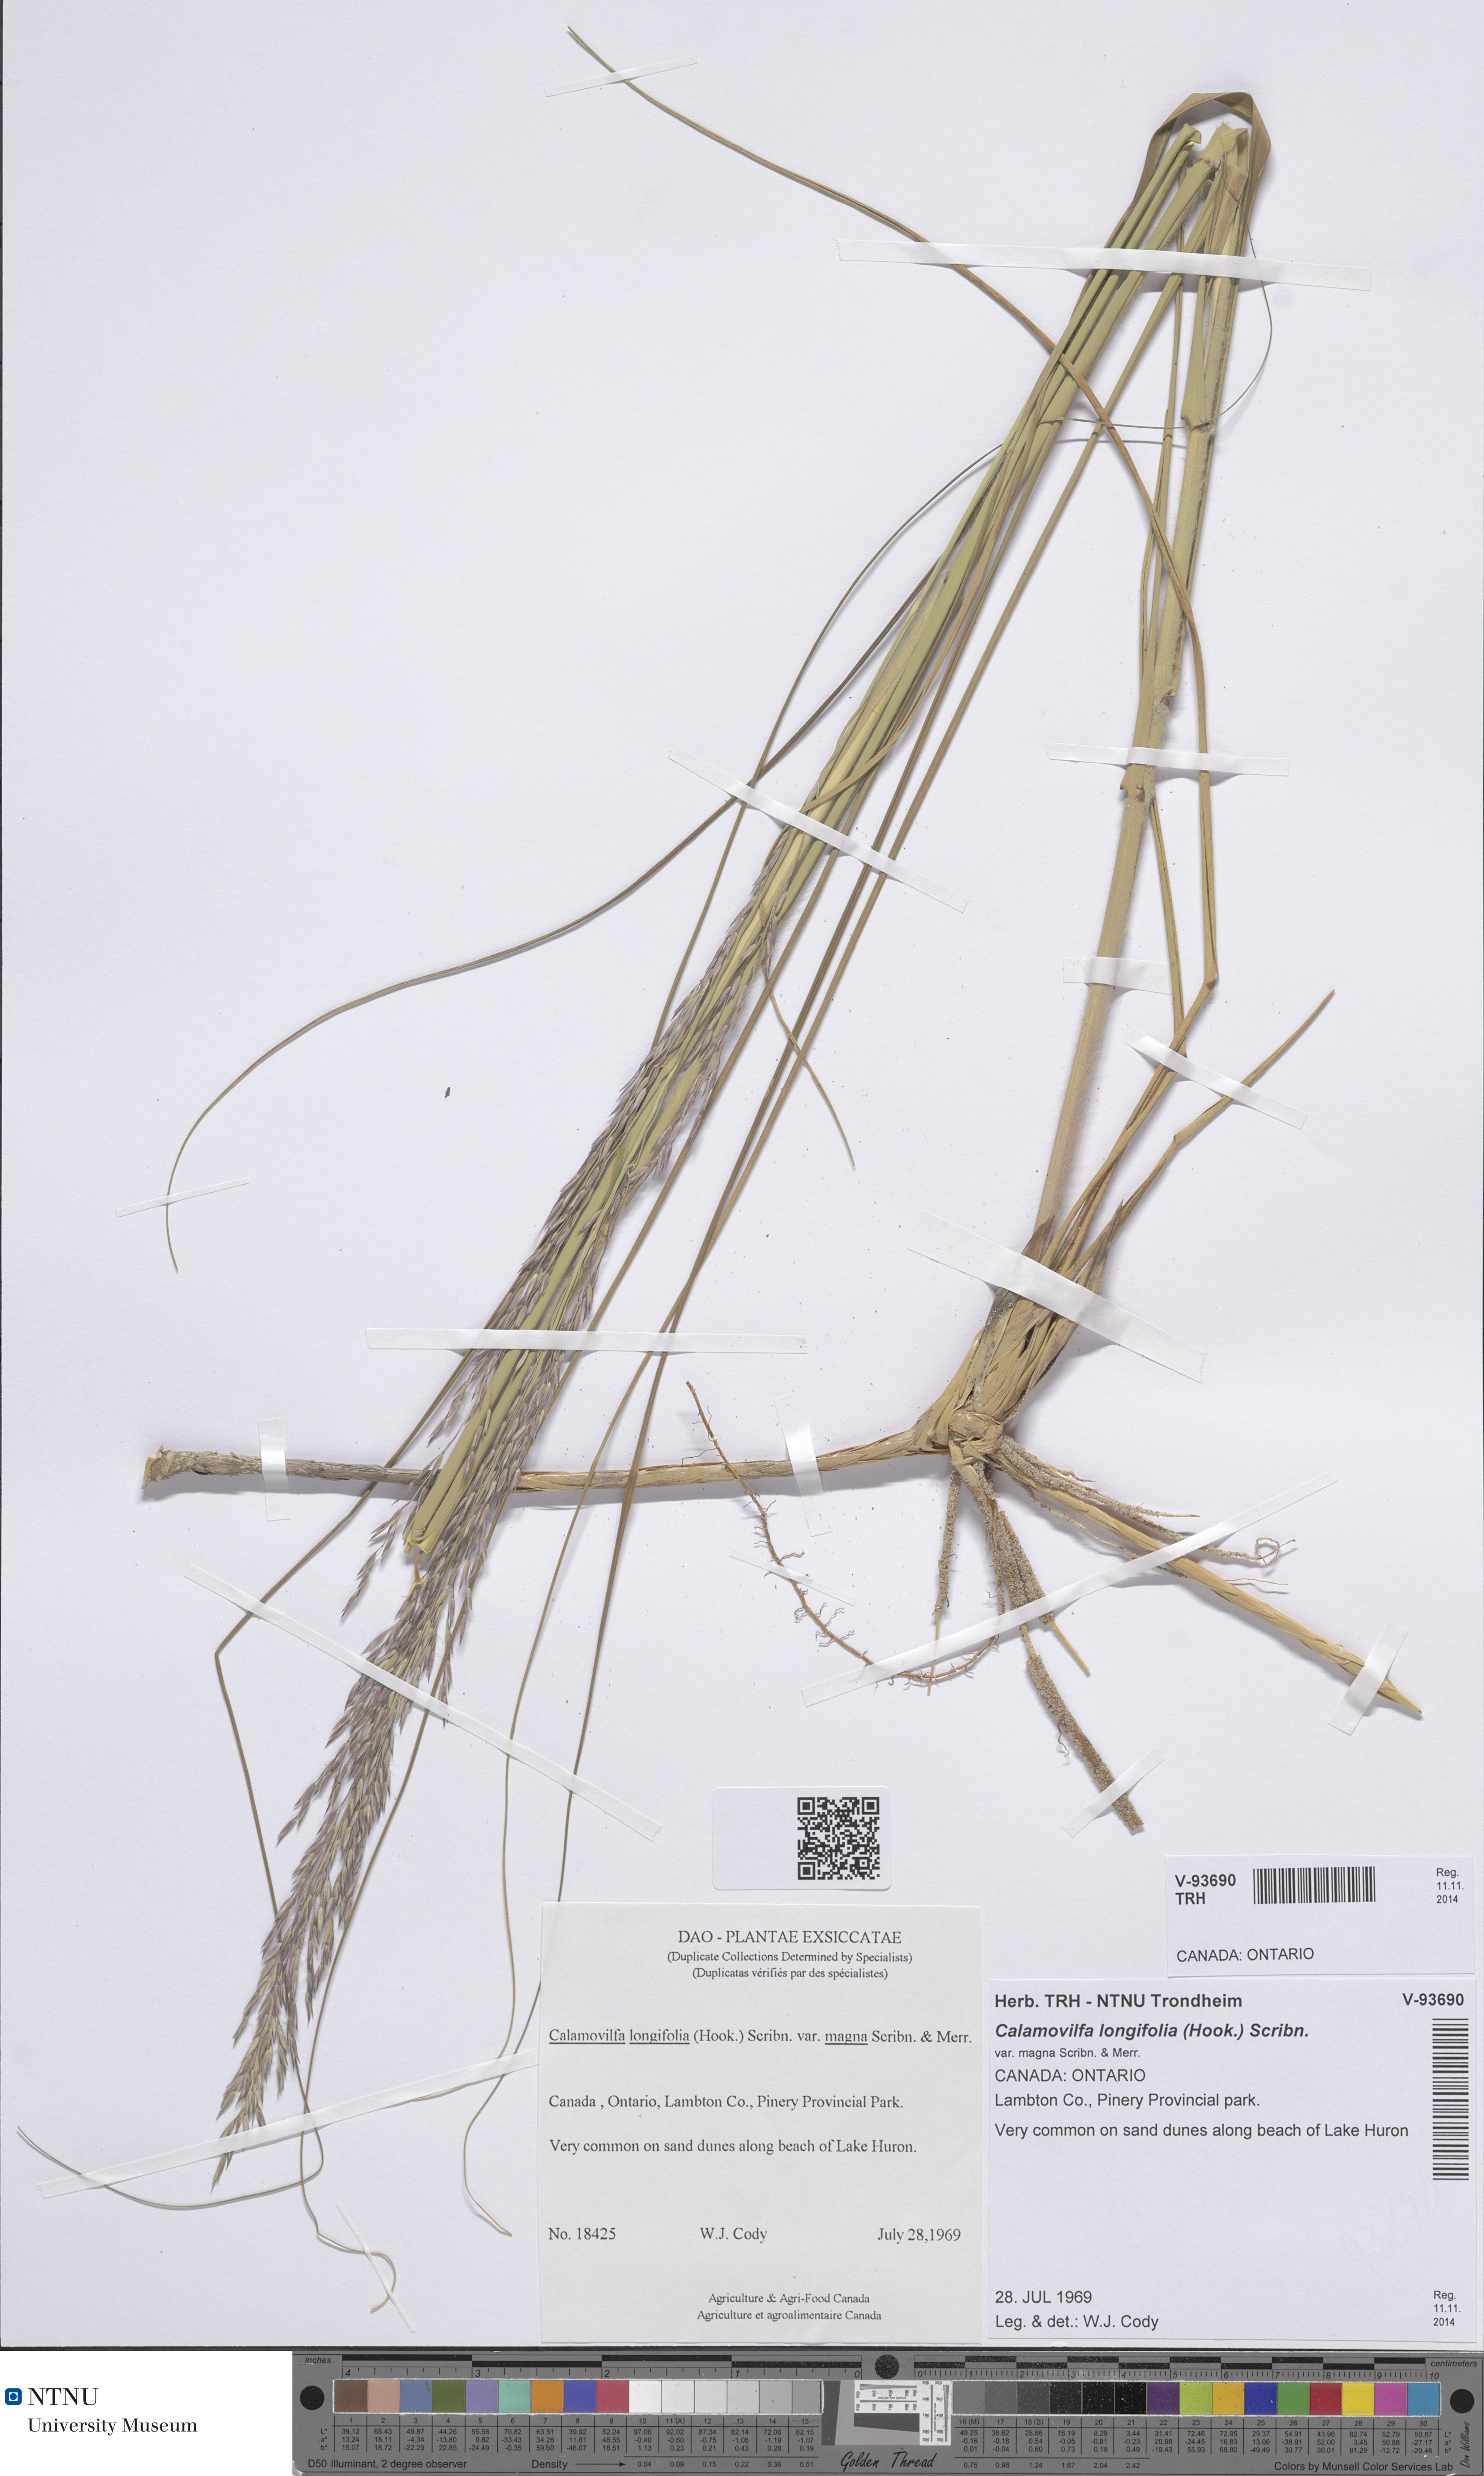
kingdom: Plantae
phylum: Tracheophyta
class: Liliopsida
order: Poales
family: Poaceae
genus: Sporobolus
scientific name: Sporobolus rigidus
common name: Prairie sandreed
